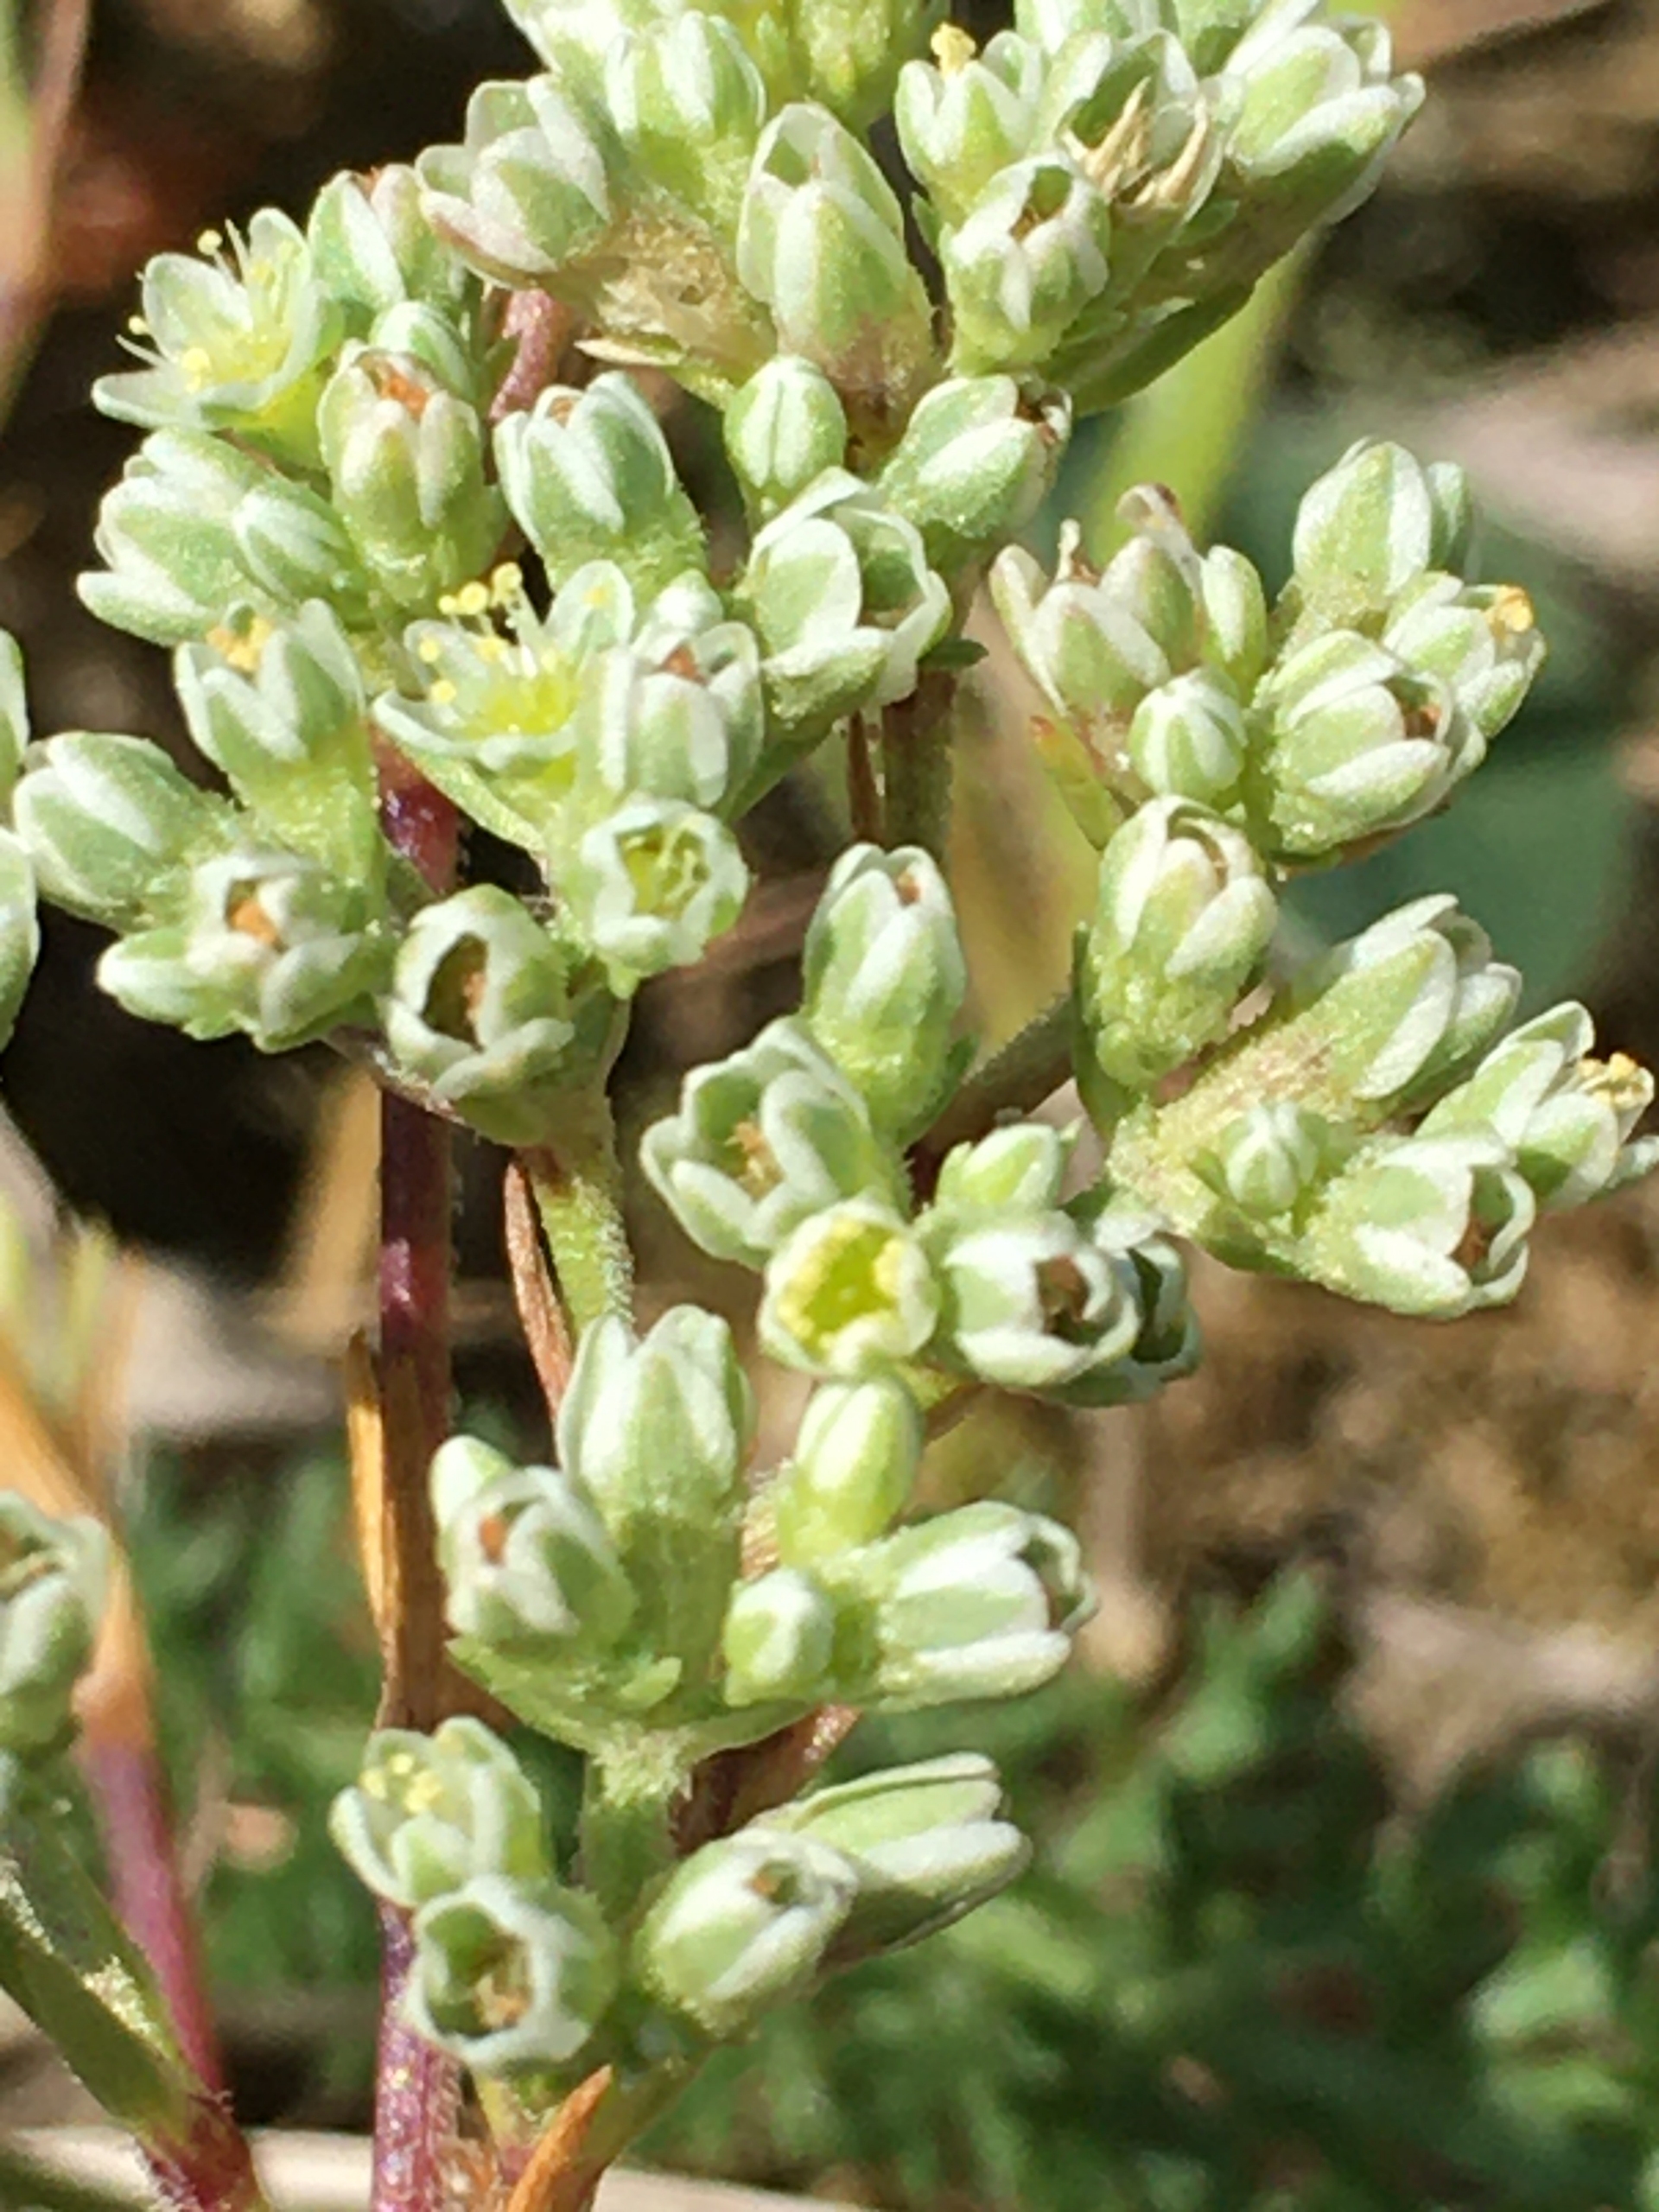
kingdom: Plantae
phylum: Tracheophyta
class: Magnoliopsida
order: Caryophyllales
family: Caryophyllaceae
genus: Scleranthus
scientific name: Scleranthus perennis
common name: Flerårig knavel
